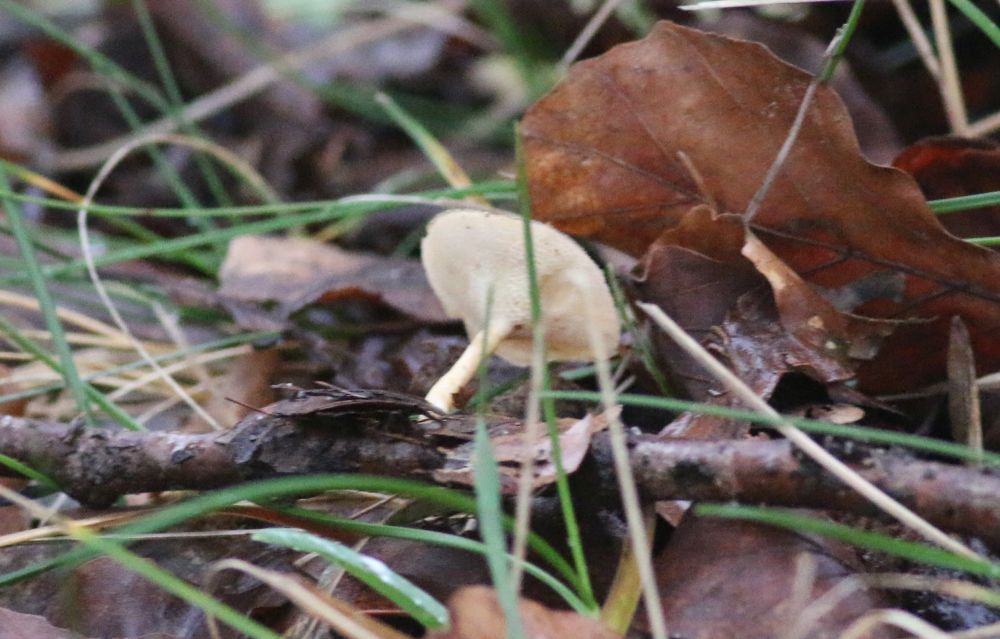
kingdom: Fungi
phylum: Basidiomycota
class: Agaricomycetes
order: Polyporales
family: Polyporaceae
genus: Lentinus
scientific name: Lentinus brumalis
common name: vinter-stilkporesvamp
